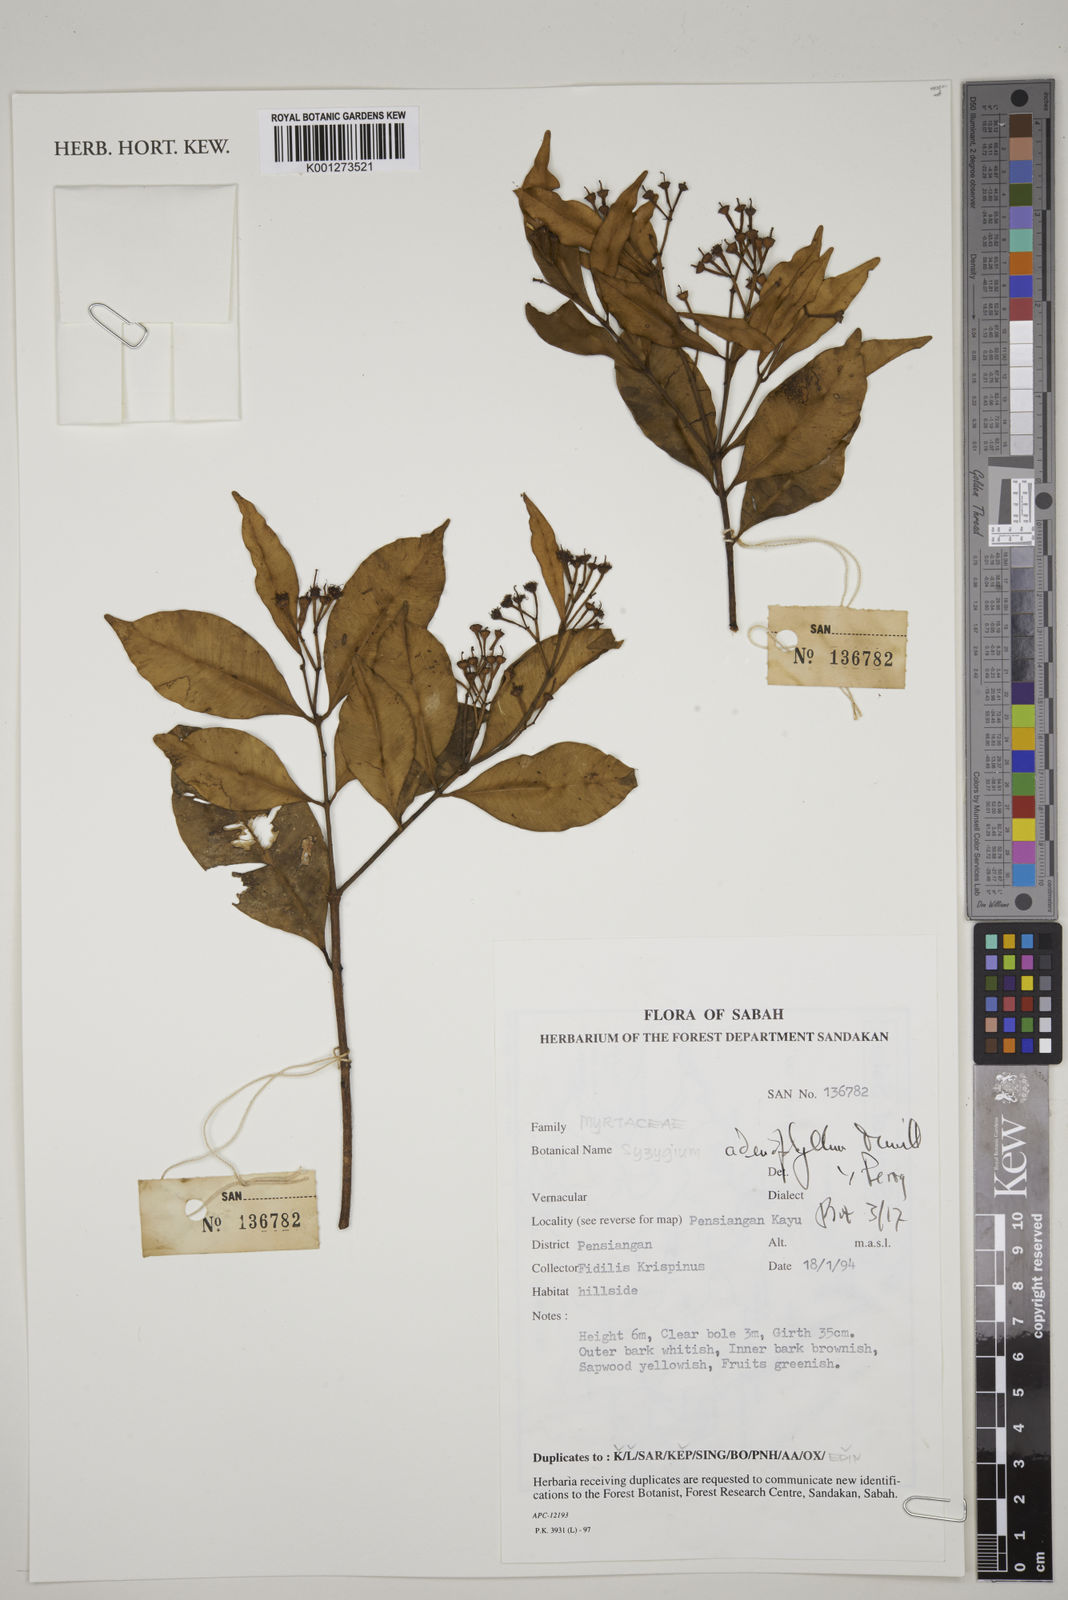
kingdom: Plantae
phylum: Tracheophyta
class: Magnoliopsida
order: Myrtales
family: Myrtaceae
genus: Syzygium
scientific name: Syzygium adenophyllum
